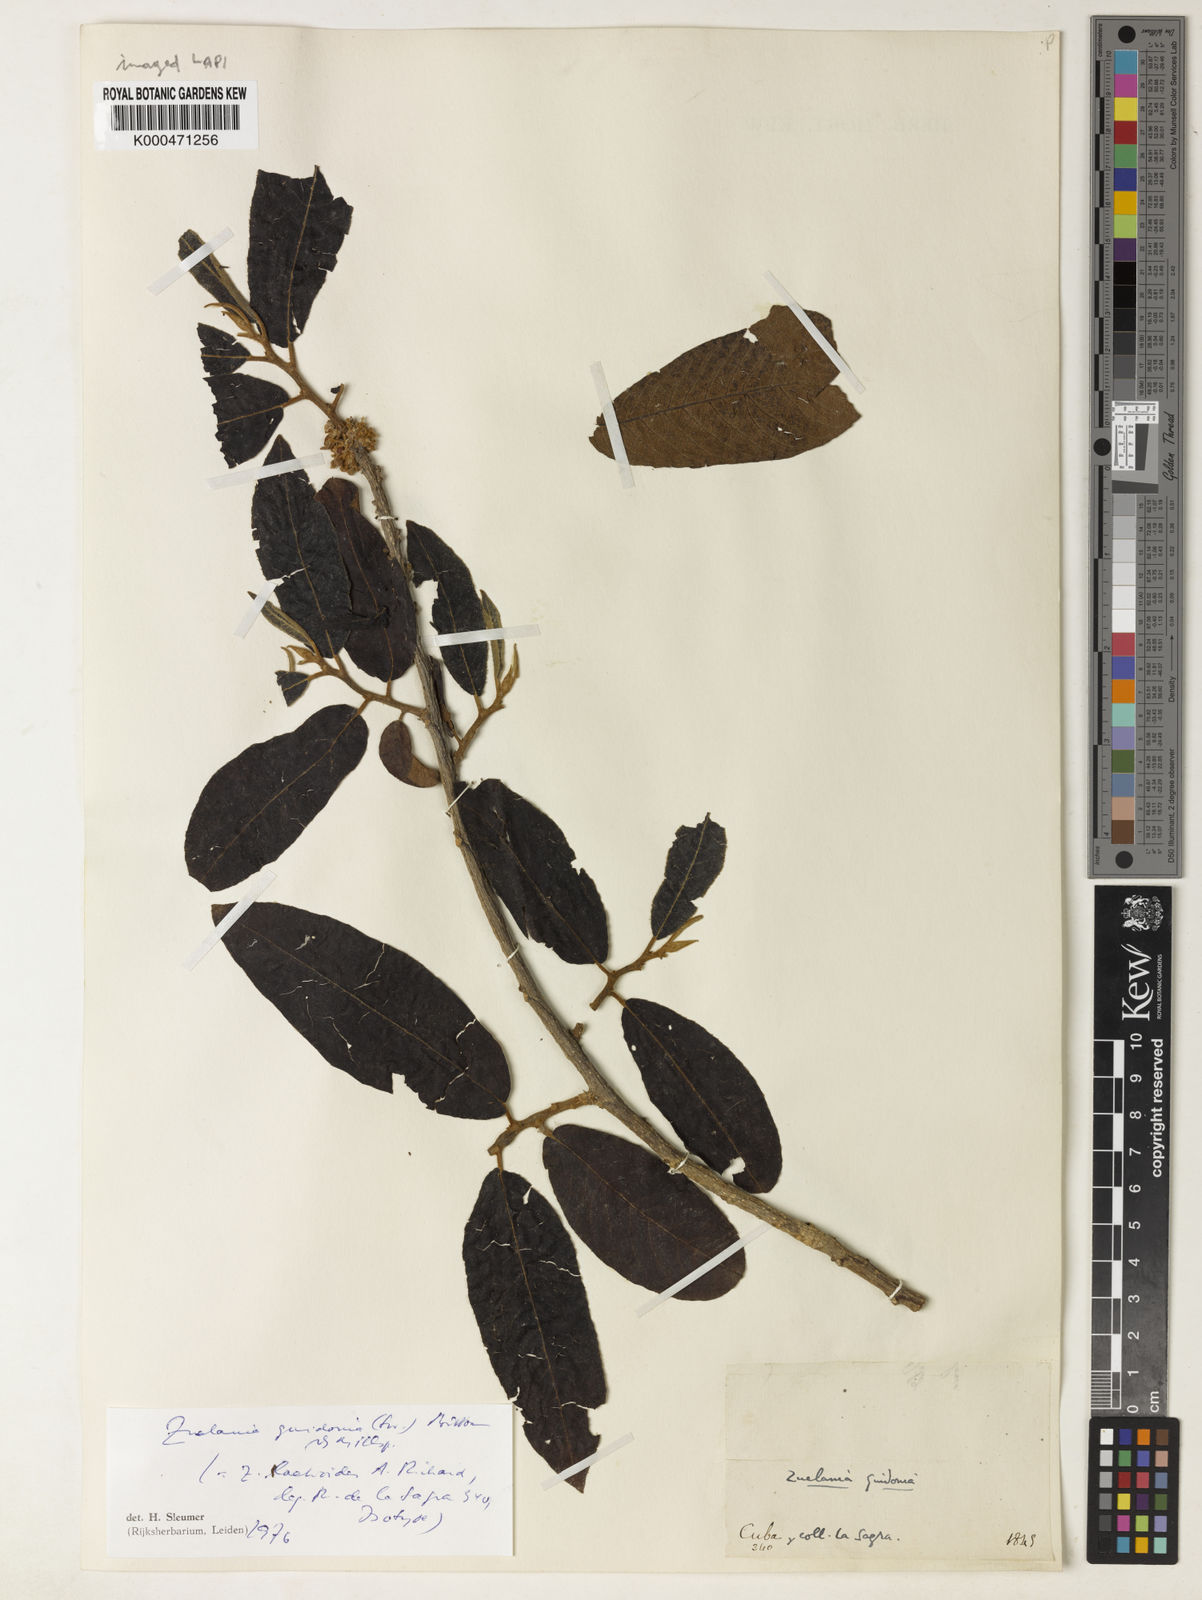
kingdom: Plantae
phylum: Tracheophyta
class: Magnoliopsida
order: Malpighiales
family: Salicaceae
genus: Casearia
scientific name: Casearia icosandra
